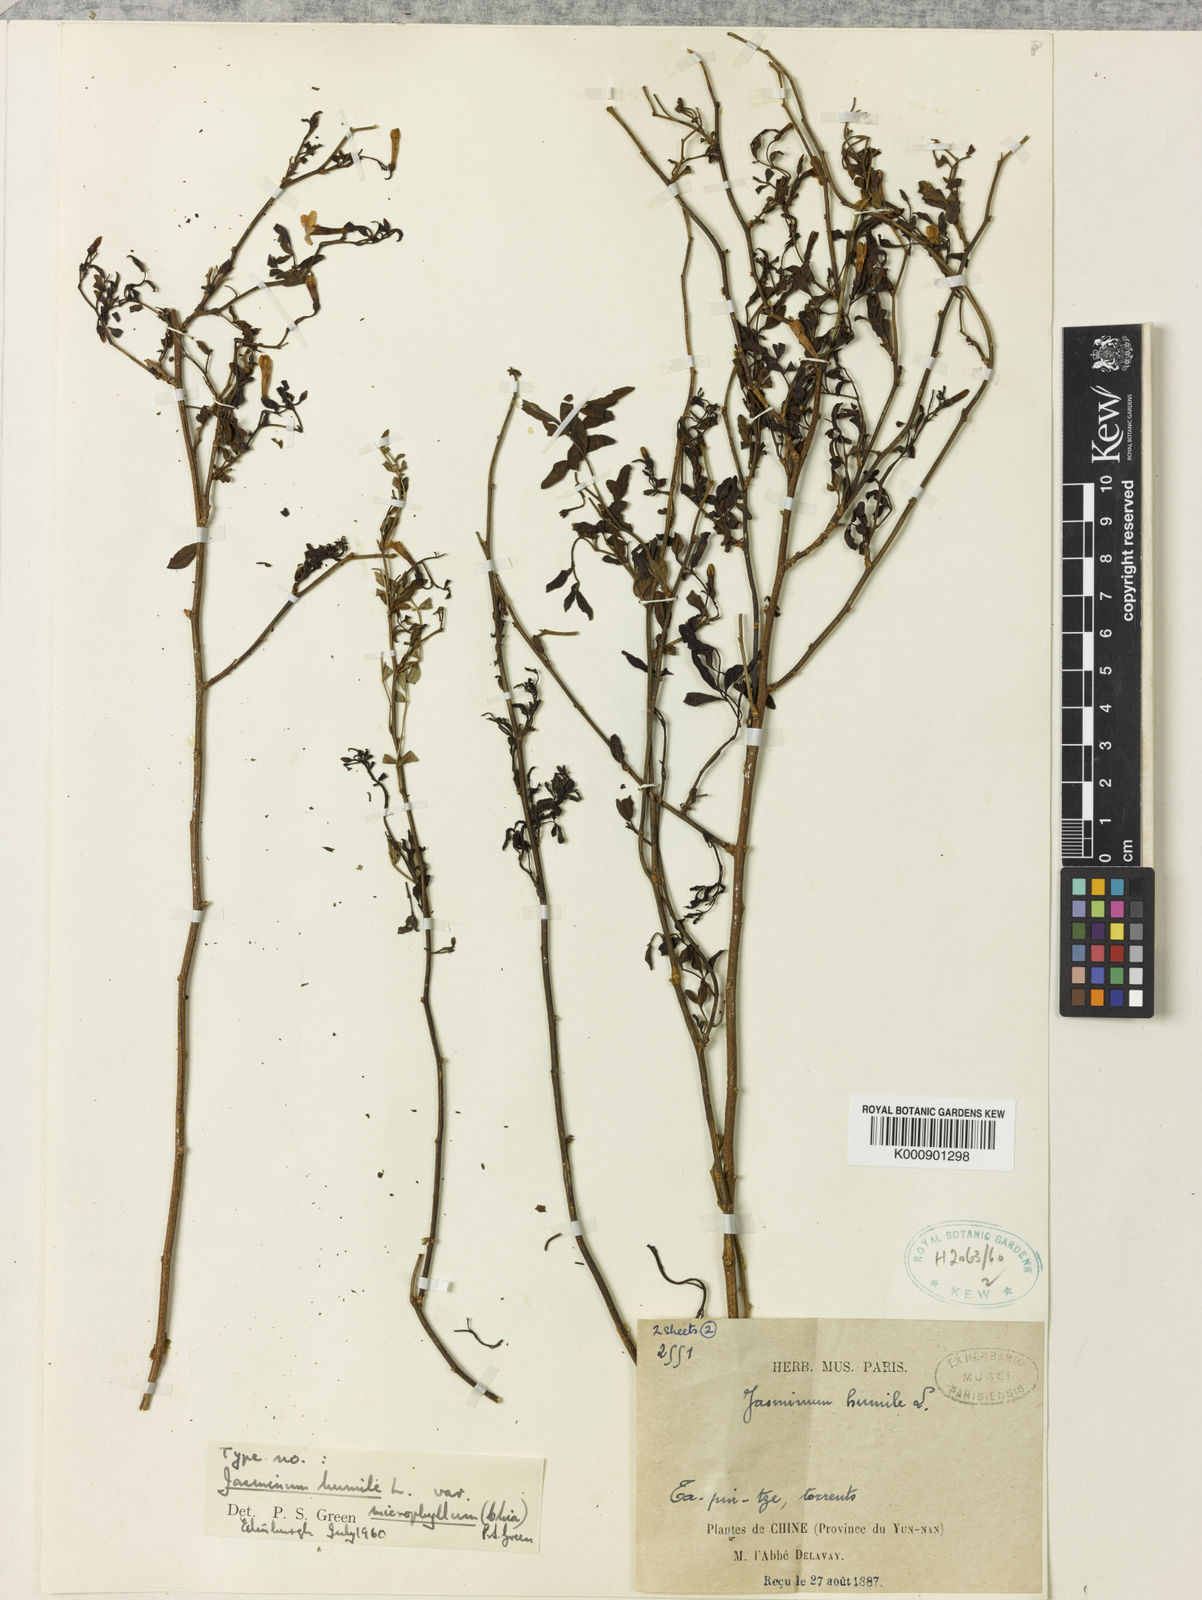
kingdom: Plantae
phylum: Tracheophyta
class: Magnoliopsida
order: Lamiales
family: Oleaceae
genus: Chrysojasminum
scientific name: Chrysojasminum humile
